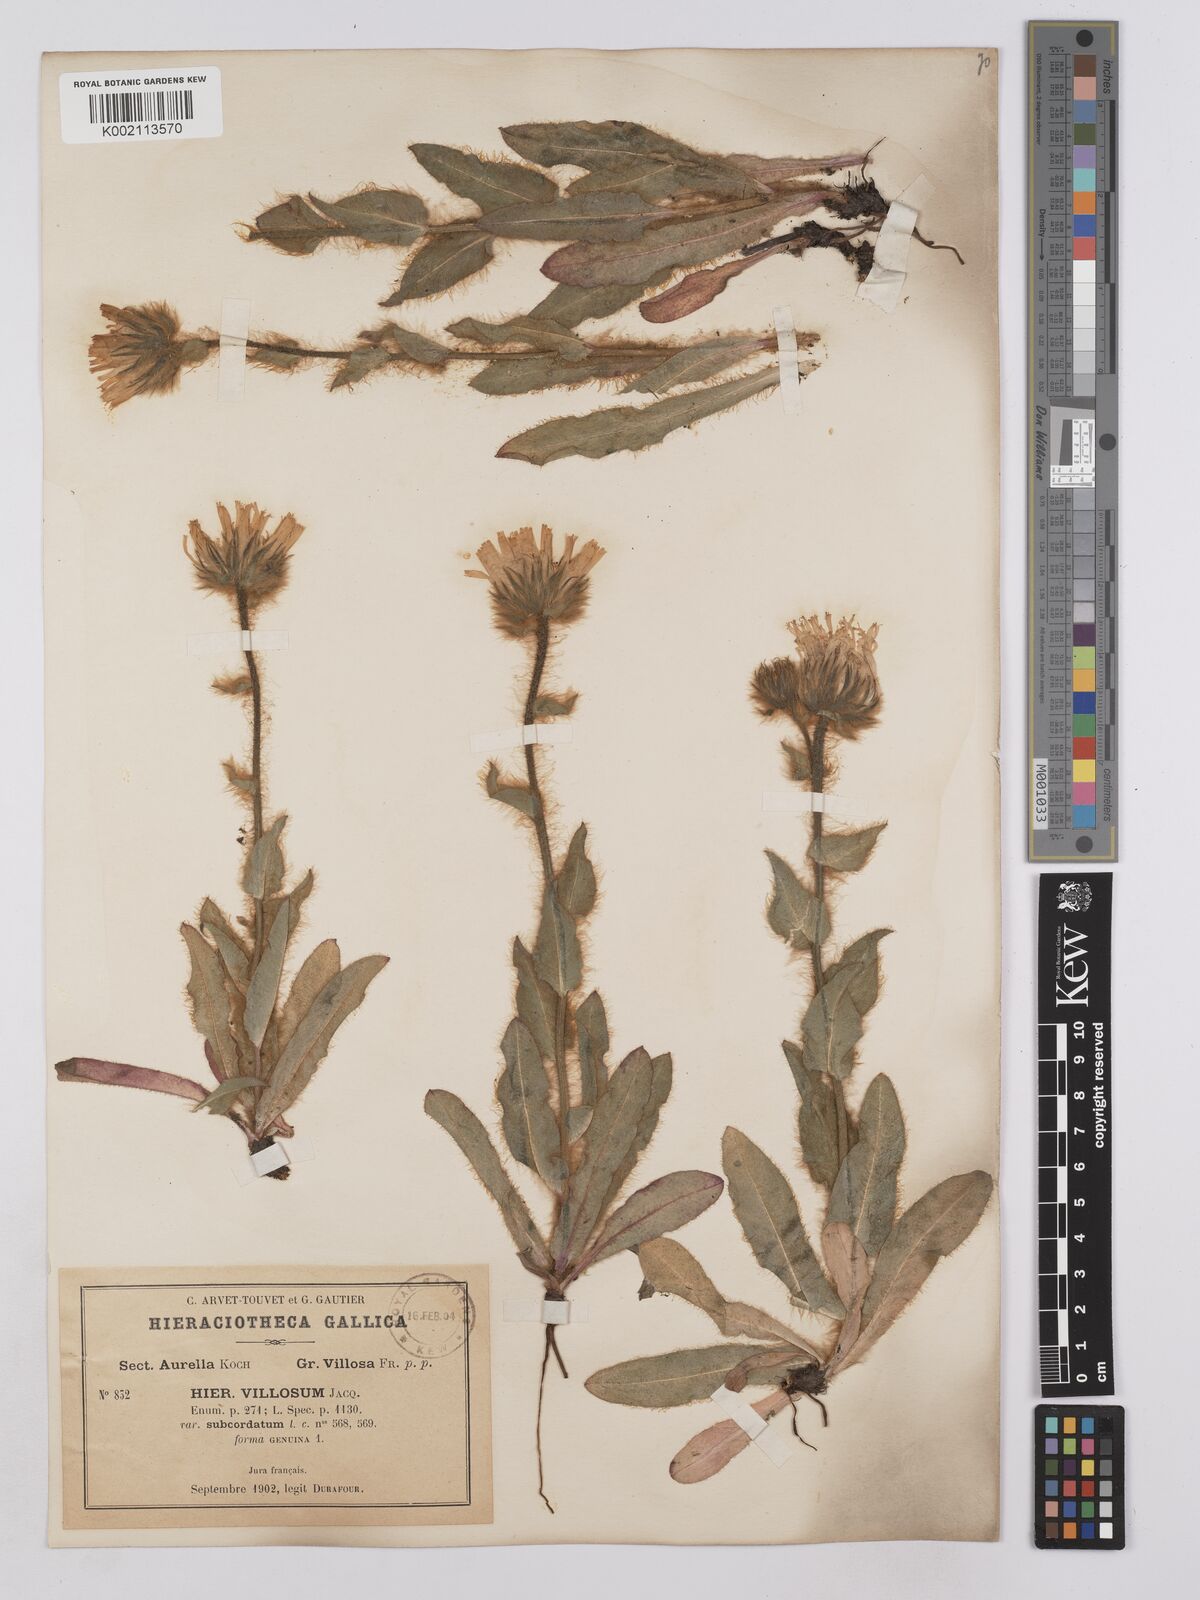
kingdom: Plantae
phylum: Tracheophyta
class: Magnoliopsida
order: Asterales
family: Asteraceae
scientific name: Asteraceae
